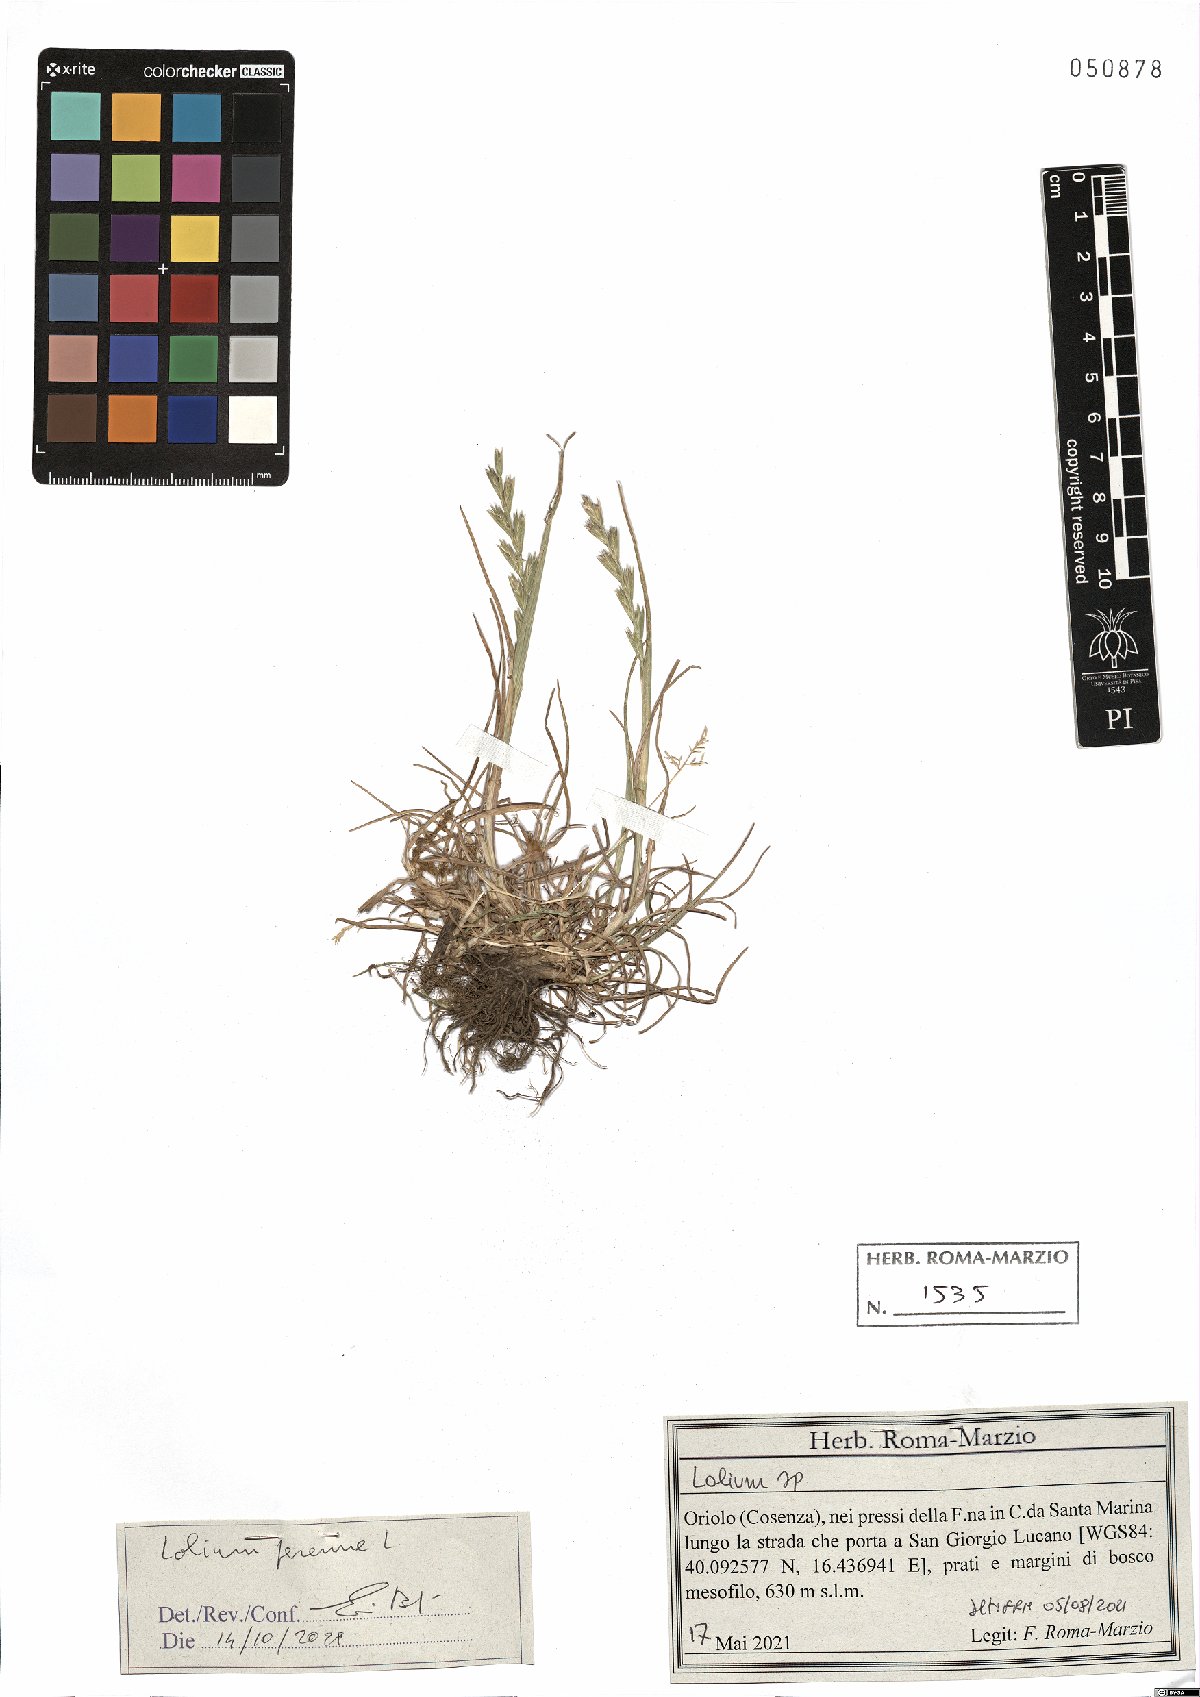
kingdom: Plantae
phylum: Tracheophyta
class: Liliopsida
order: Poales
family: Poaceae
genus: Lolium
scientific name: Lolium perenne
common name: Perennial ryegrass
